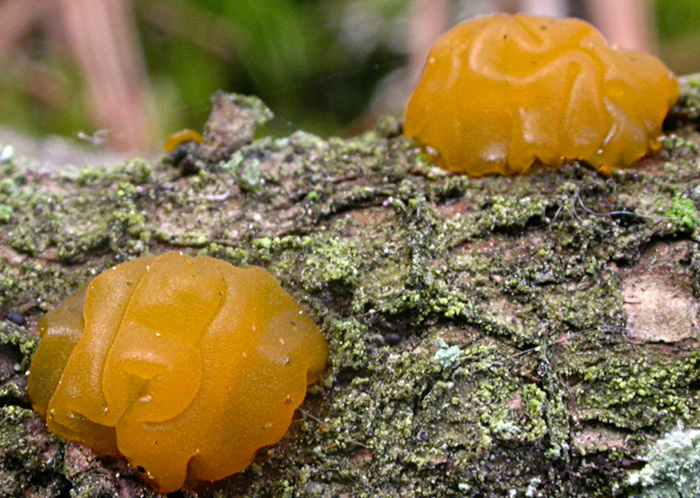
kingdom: Fungi
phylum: Basidiomycota
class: Dacrymycetes
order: Dacrymycetales
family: Dacryonaemataceae
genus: Dacryonaema
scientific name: Dacryonaema macnabbii
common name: navle-tåresvamp
